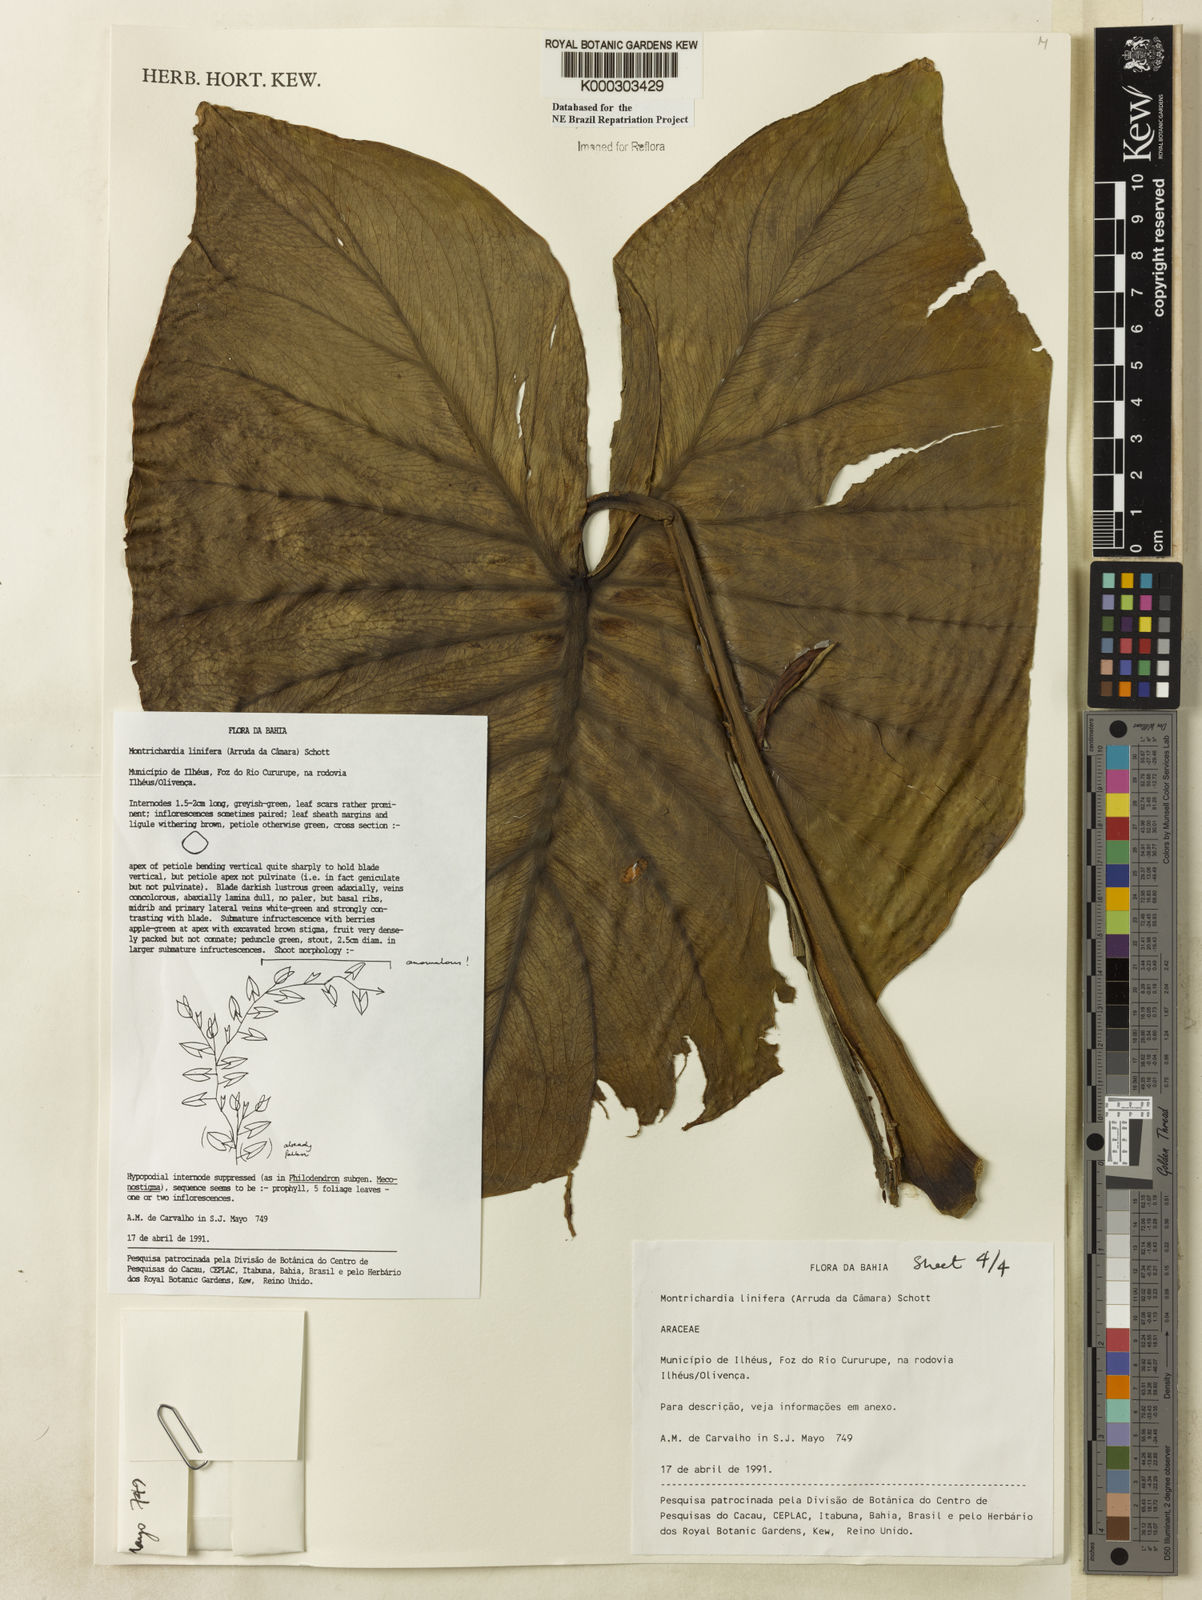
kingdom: Plantae
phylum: Tracheophyta
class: Liliopsida
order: Alismatales
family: Araceae
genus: Montrichardia
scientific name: Montrichardia linifera
